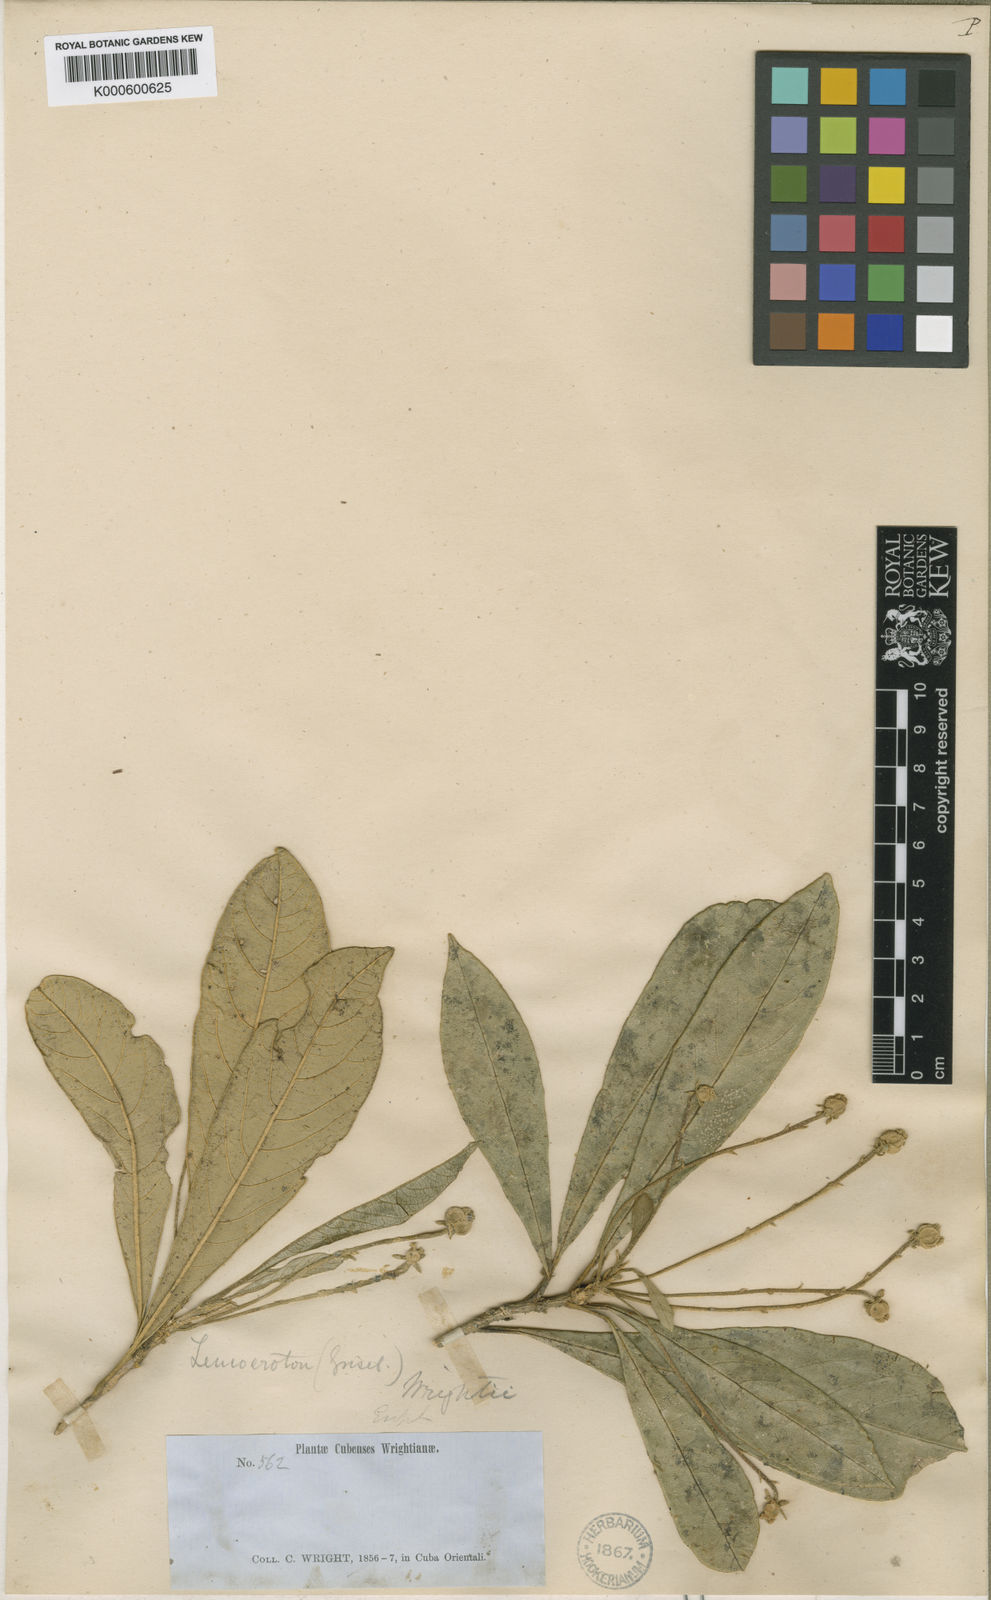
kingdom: Plantae
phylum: Tracheophyta
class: Magnoliopsida
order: Malpighiales
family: Euphorbiaceae
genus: Leucocroton
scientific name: Leucocroton wrightii
